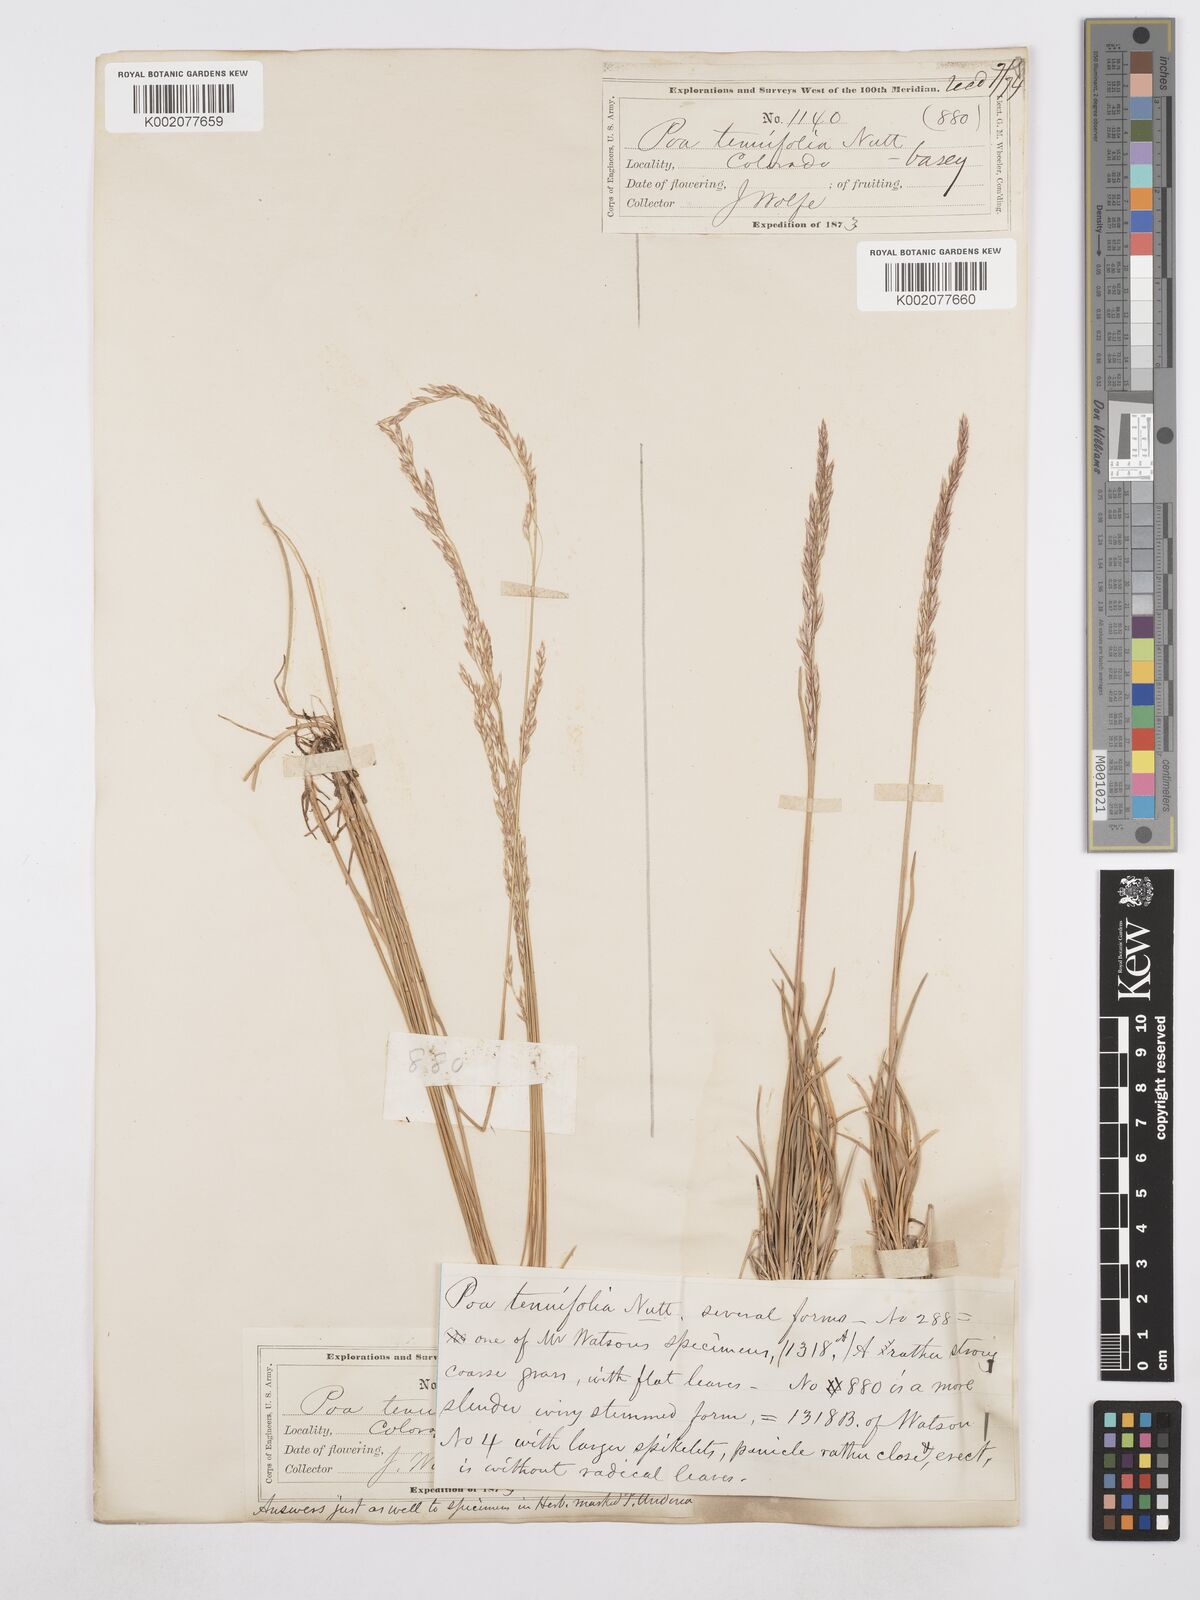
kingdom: Plantae
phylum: Tracheophyta
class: Liliopsida
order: Poales
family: Poaceae
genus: Poa
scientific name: Poa secunda
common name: Sandberg bluegrass
